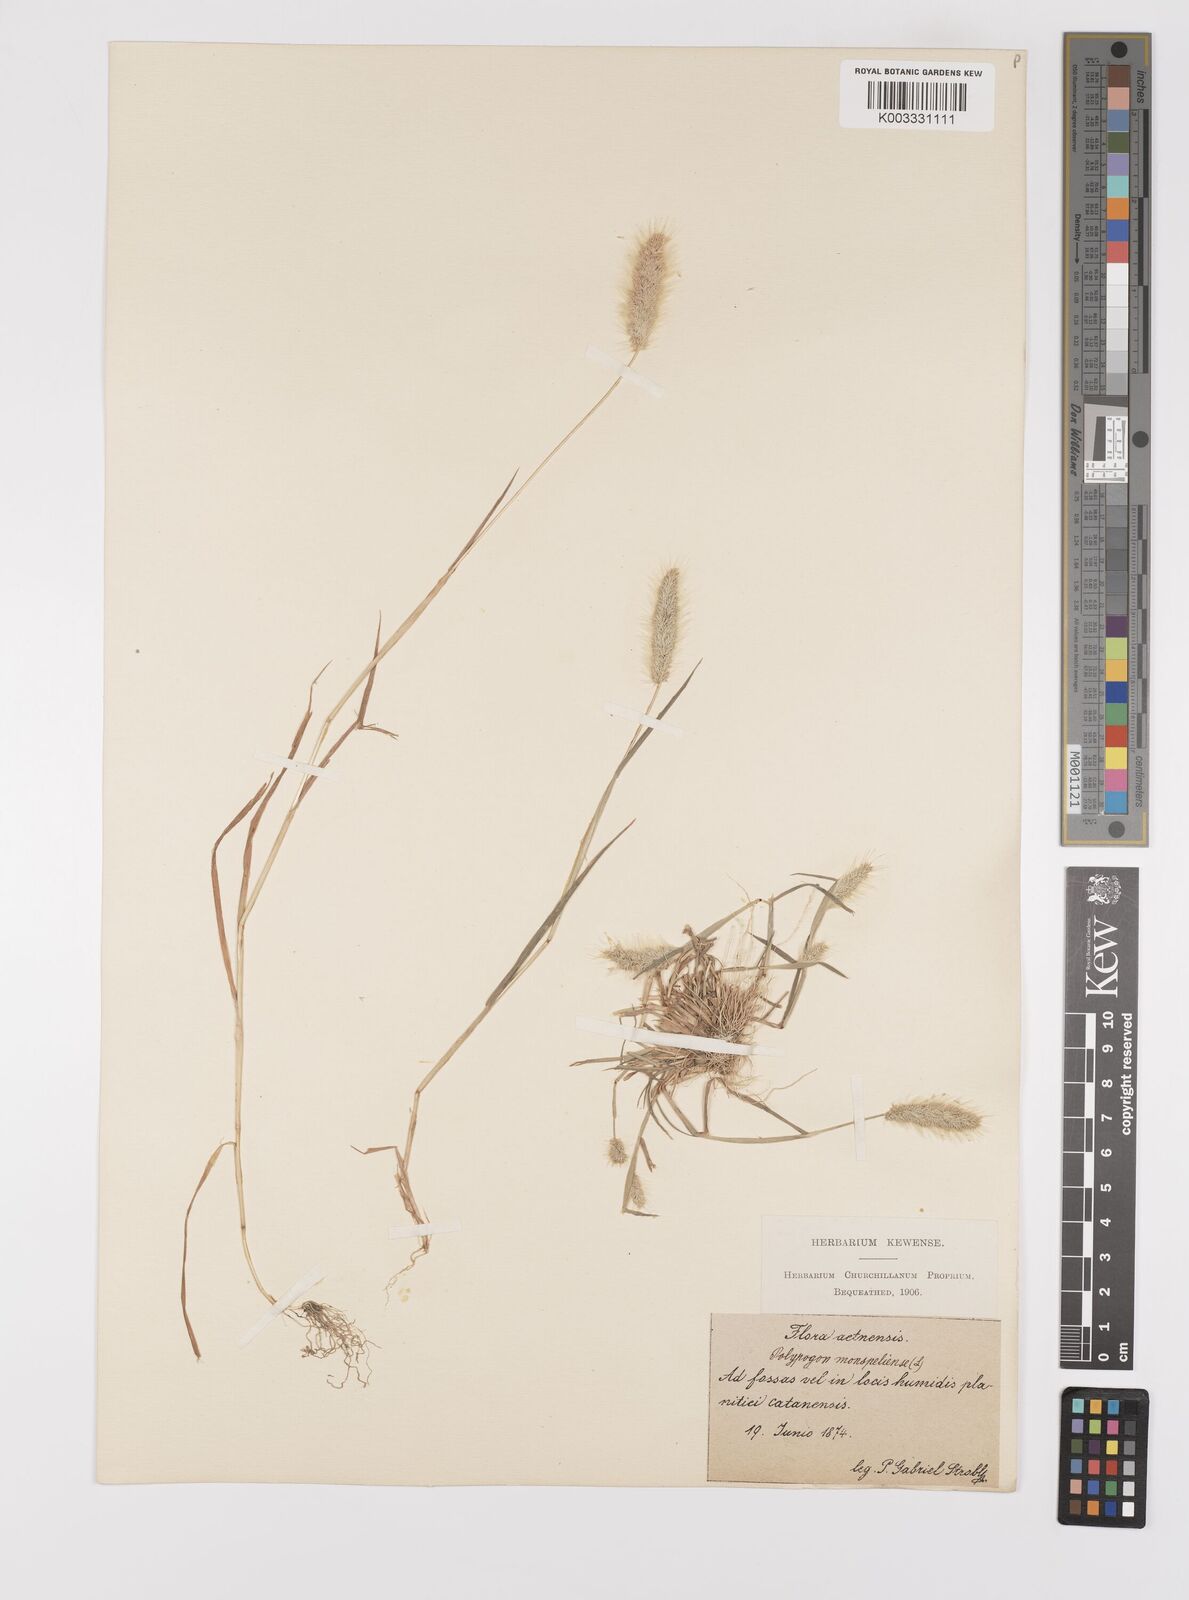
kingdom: Plantae
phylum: Tracheophyta
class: Liliopsida
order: Poales
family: Poaceae
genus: Polypogon
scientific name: Polypogon monspeliensis
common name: Annual rabbitsfoot grass
